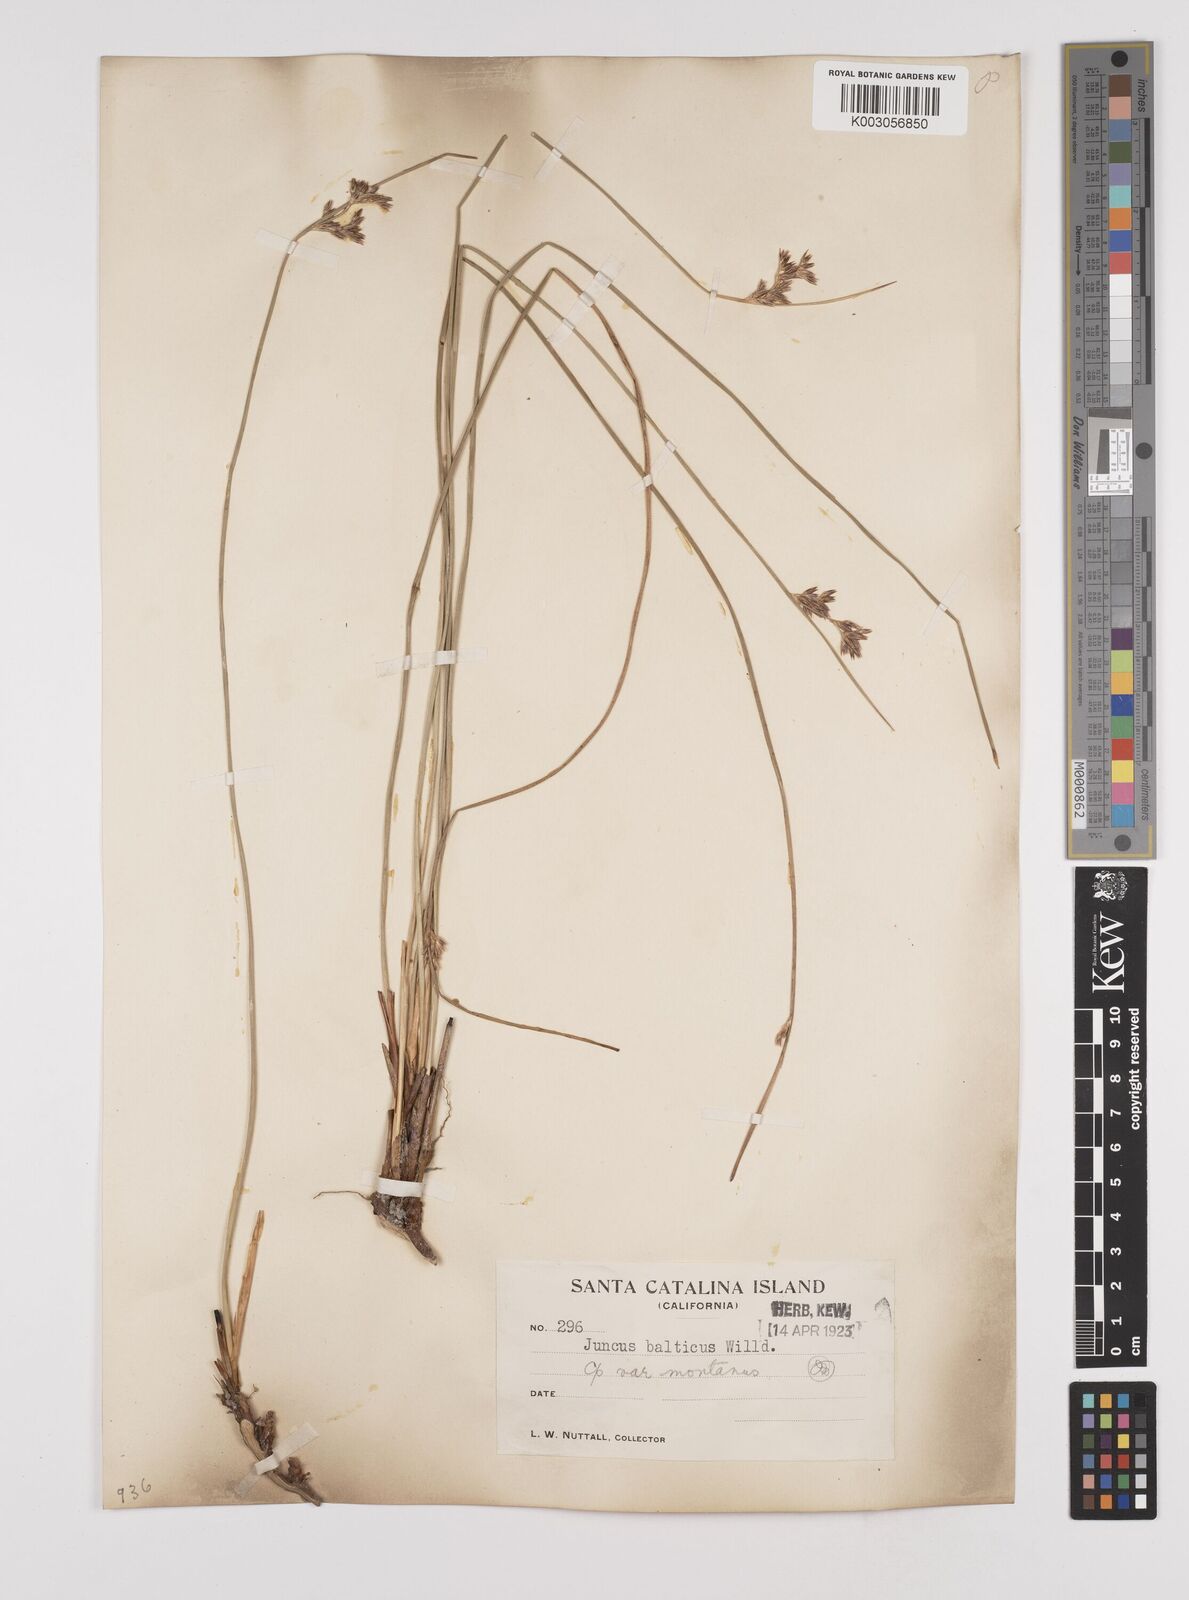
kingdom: Plantae
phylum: Tracheophyta
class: Liliopsida
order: Poales
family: Juncaceae
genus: Juncus
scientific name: Juncus balticus
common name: Baltic rush
